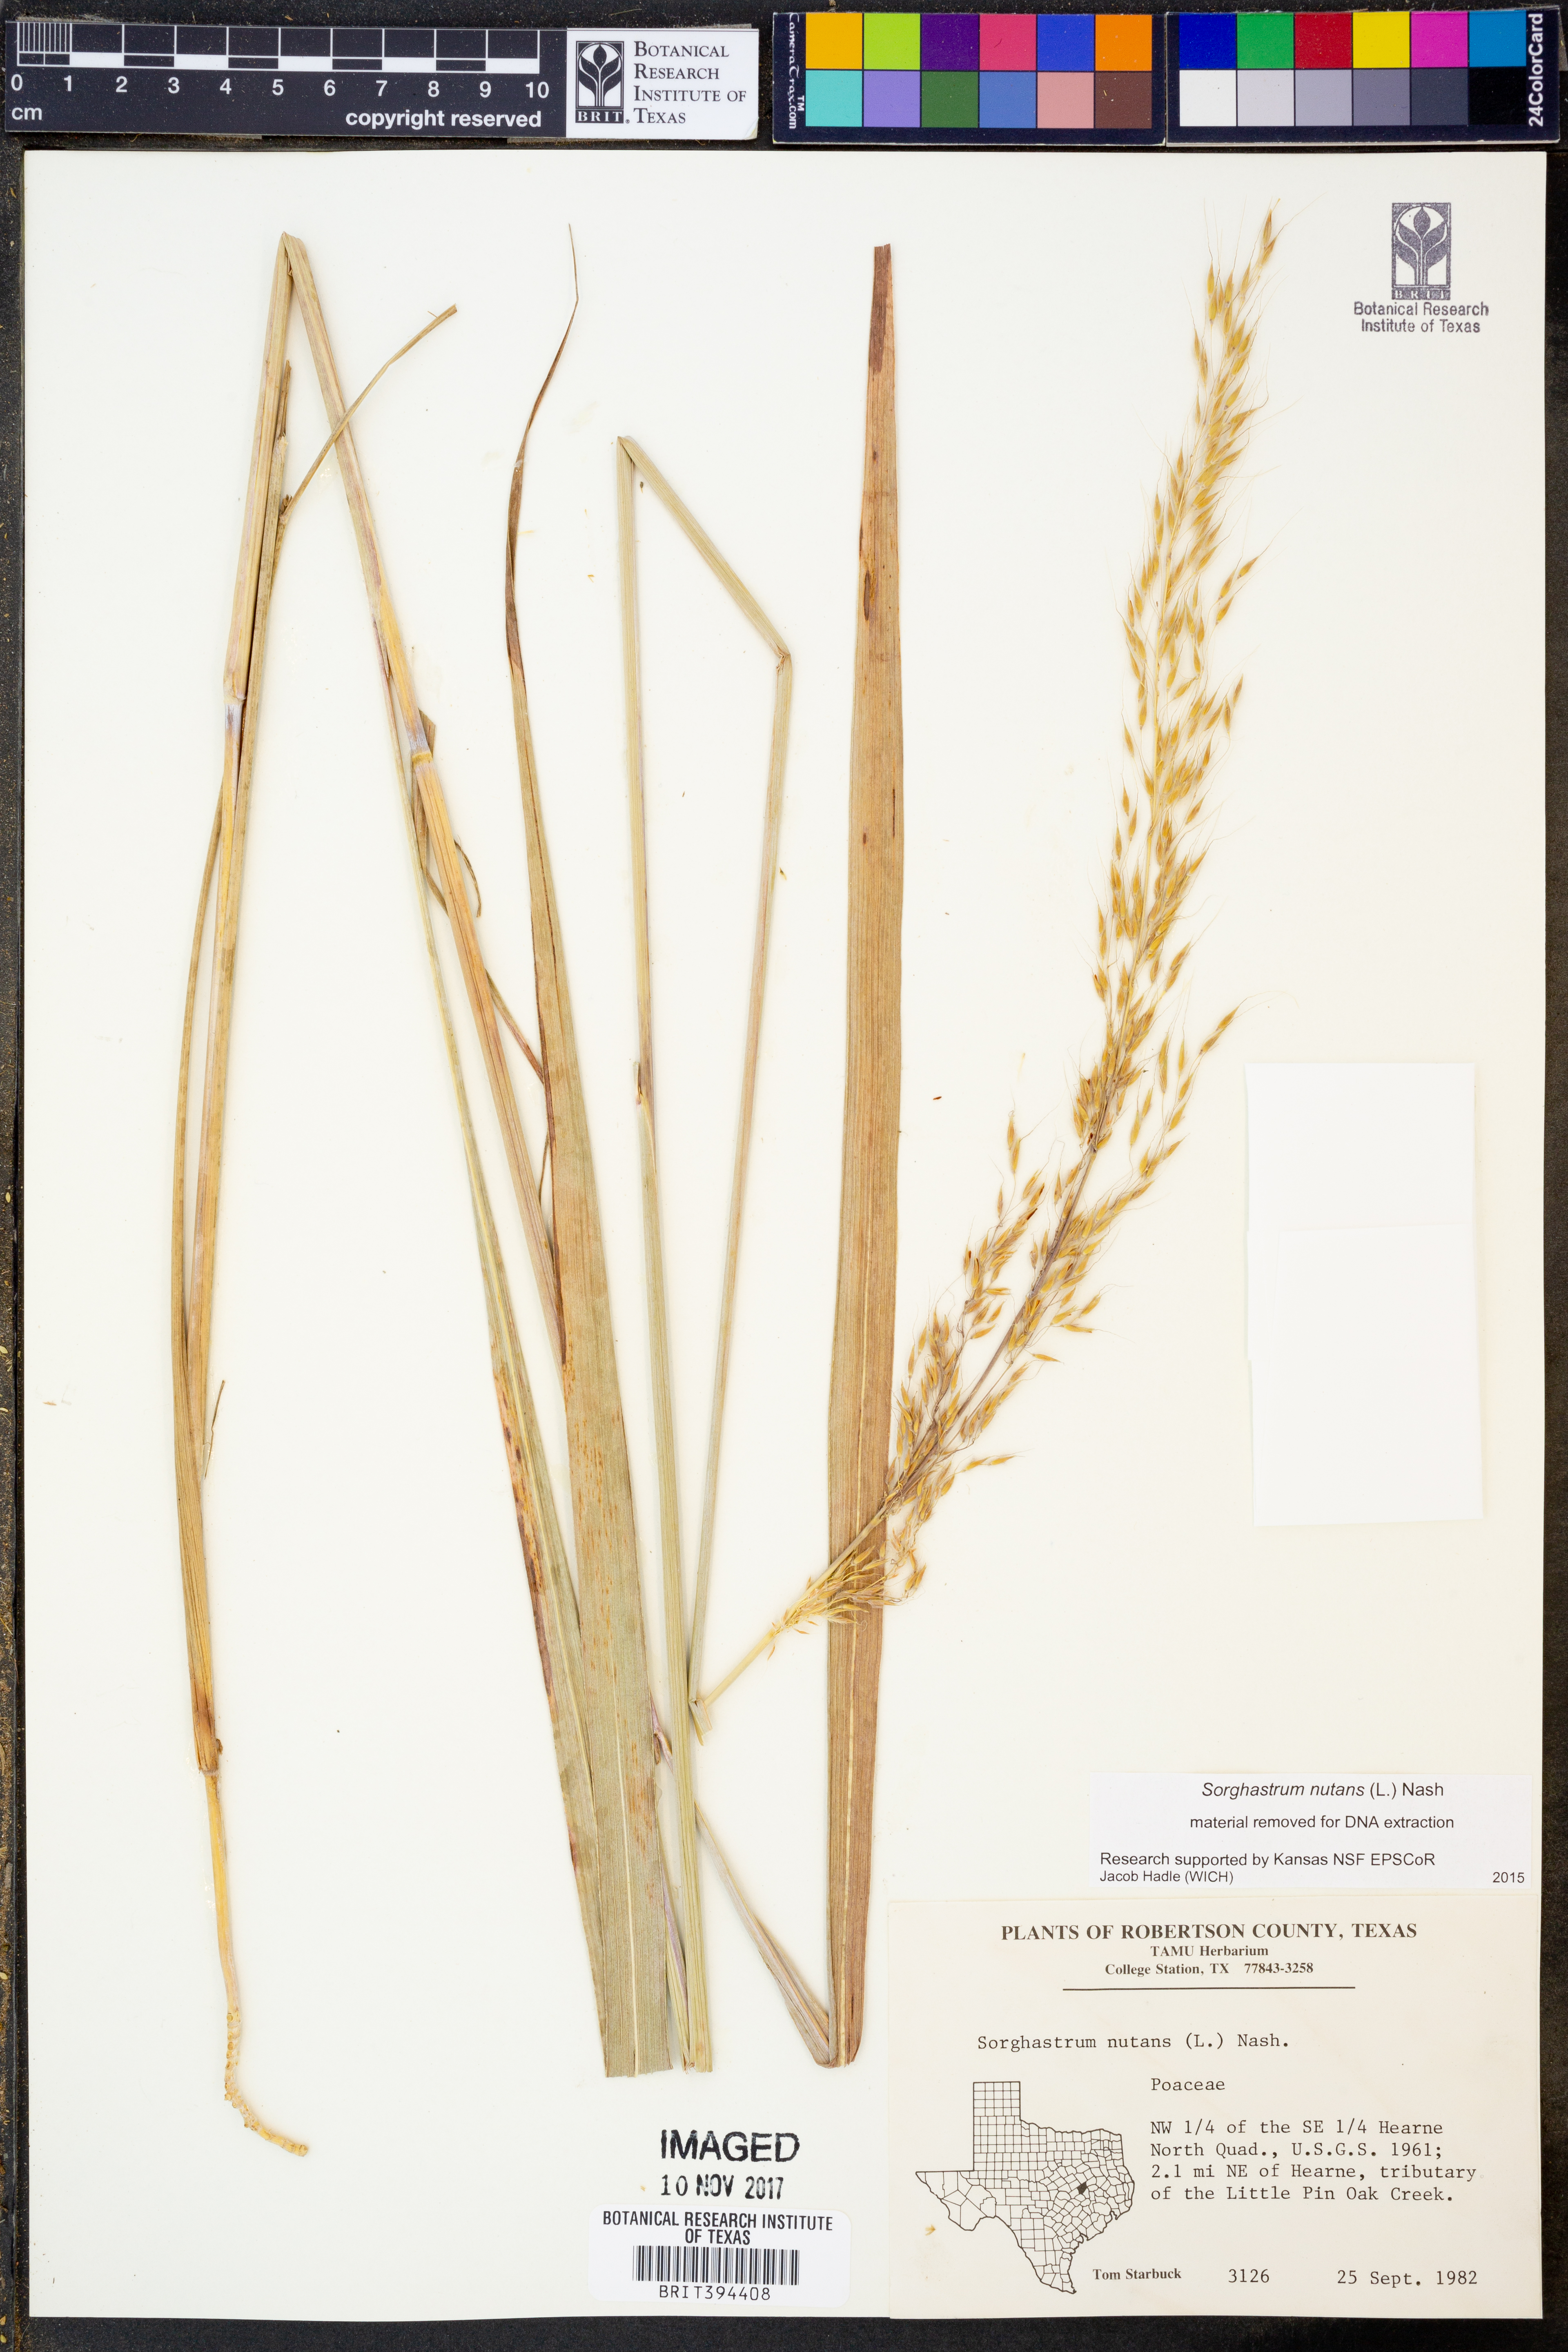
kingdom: Plantae
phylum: Tracheophyta
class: Liliopsida
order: Poales
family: Poaceae
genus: Sorghastrum
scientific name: Sorghastrum nutans
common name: Indian grass
